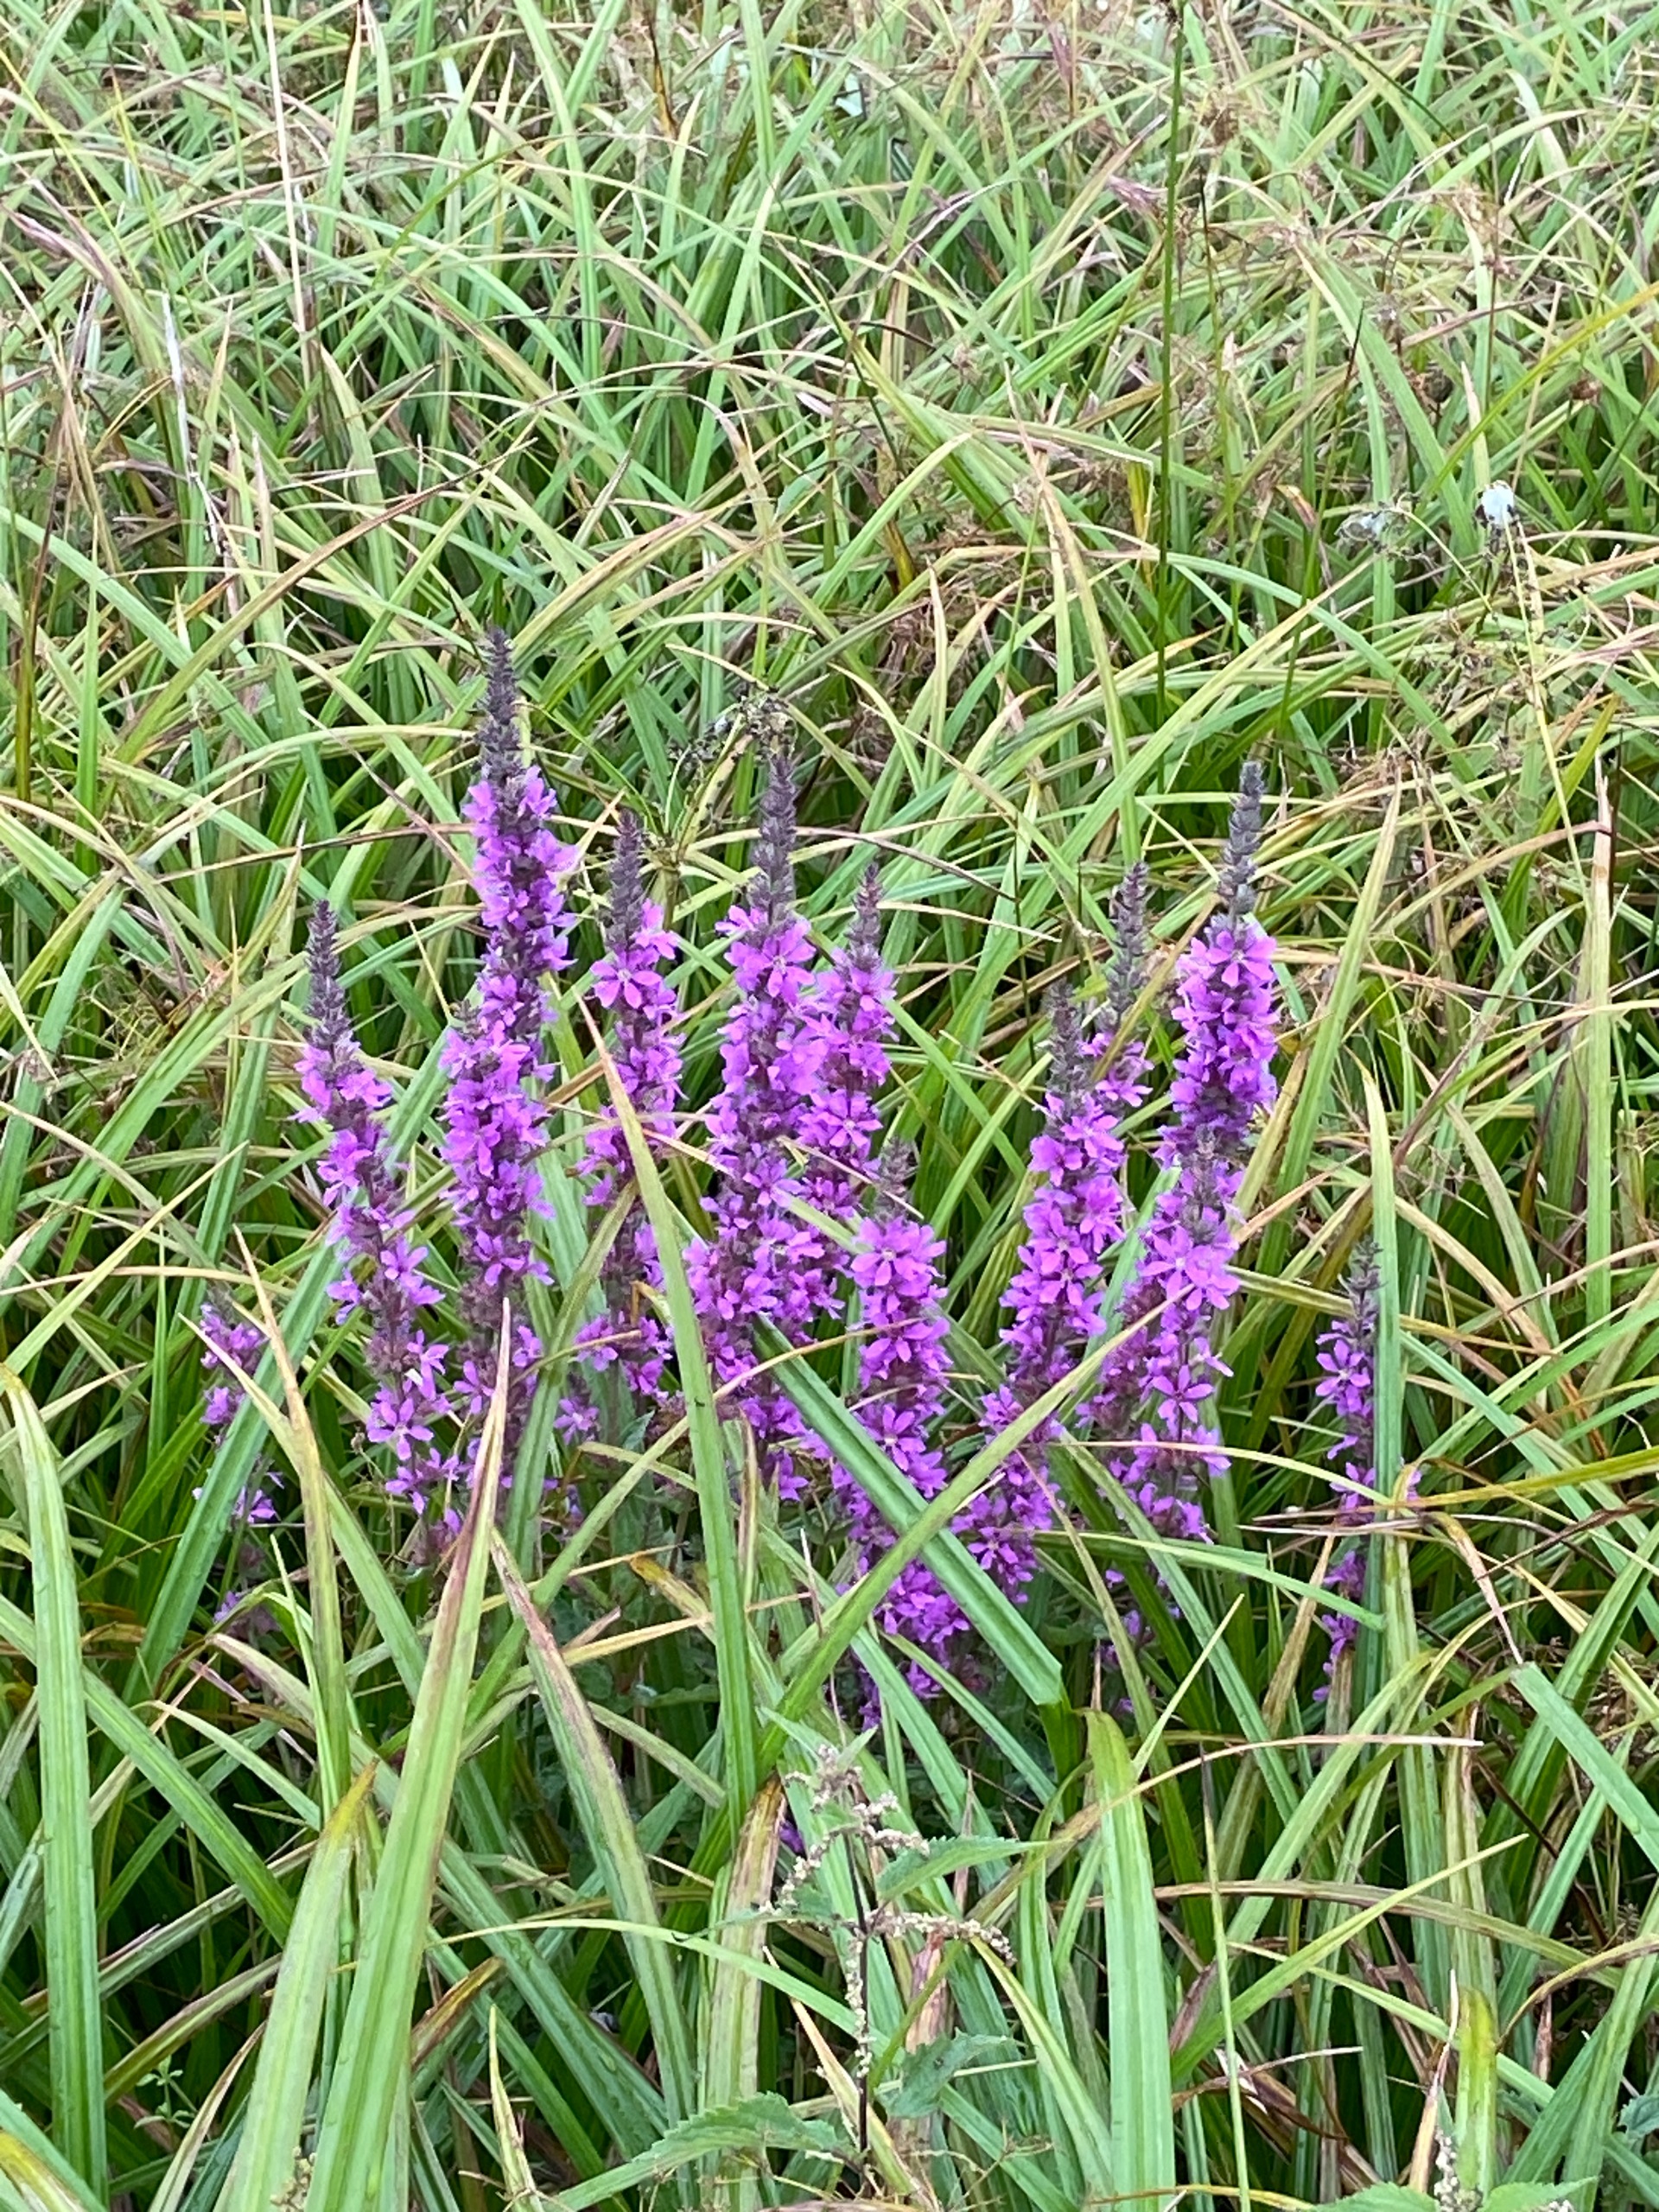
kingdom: Plantae
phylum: Tracheophyta
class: Magnoliopsida
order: Myrtales
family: Lythraceae
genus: Lythrum
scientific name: Lythrum salicaria
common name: Kattehale
